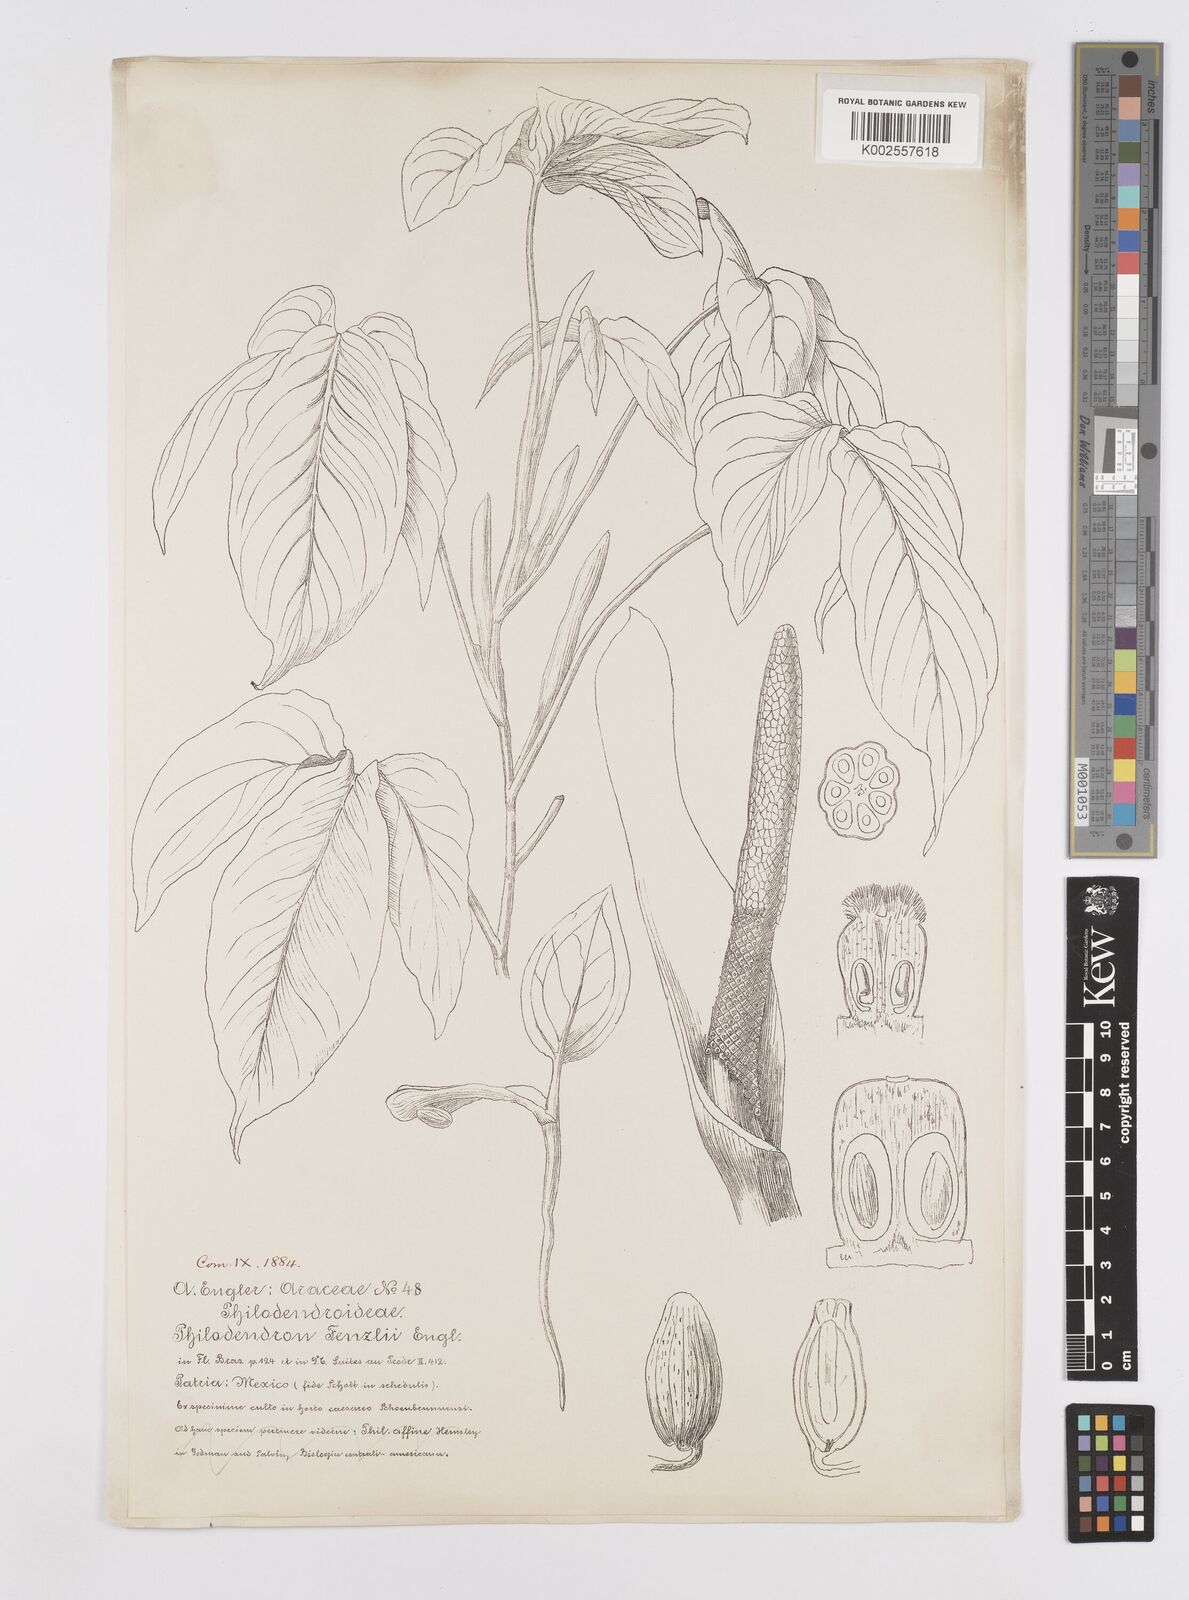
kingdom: Plantae
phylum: Tracheophyta
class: Liliopsida
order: Alismatales
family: Araceae
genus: Philodendron
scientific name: Philodendron tripartitum
